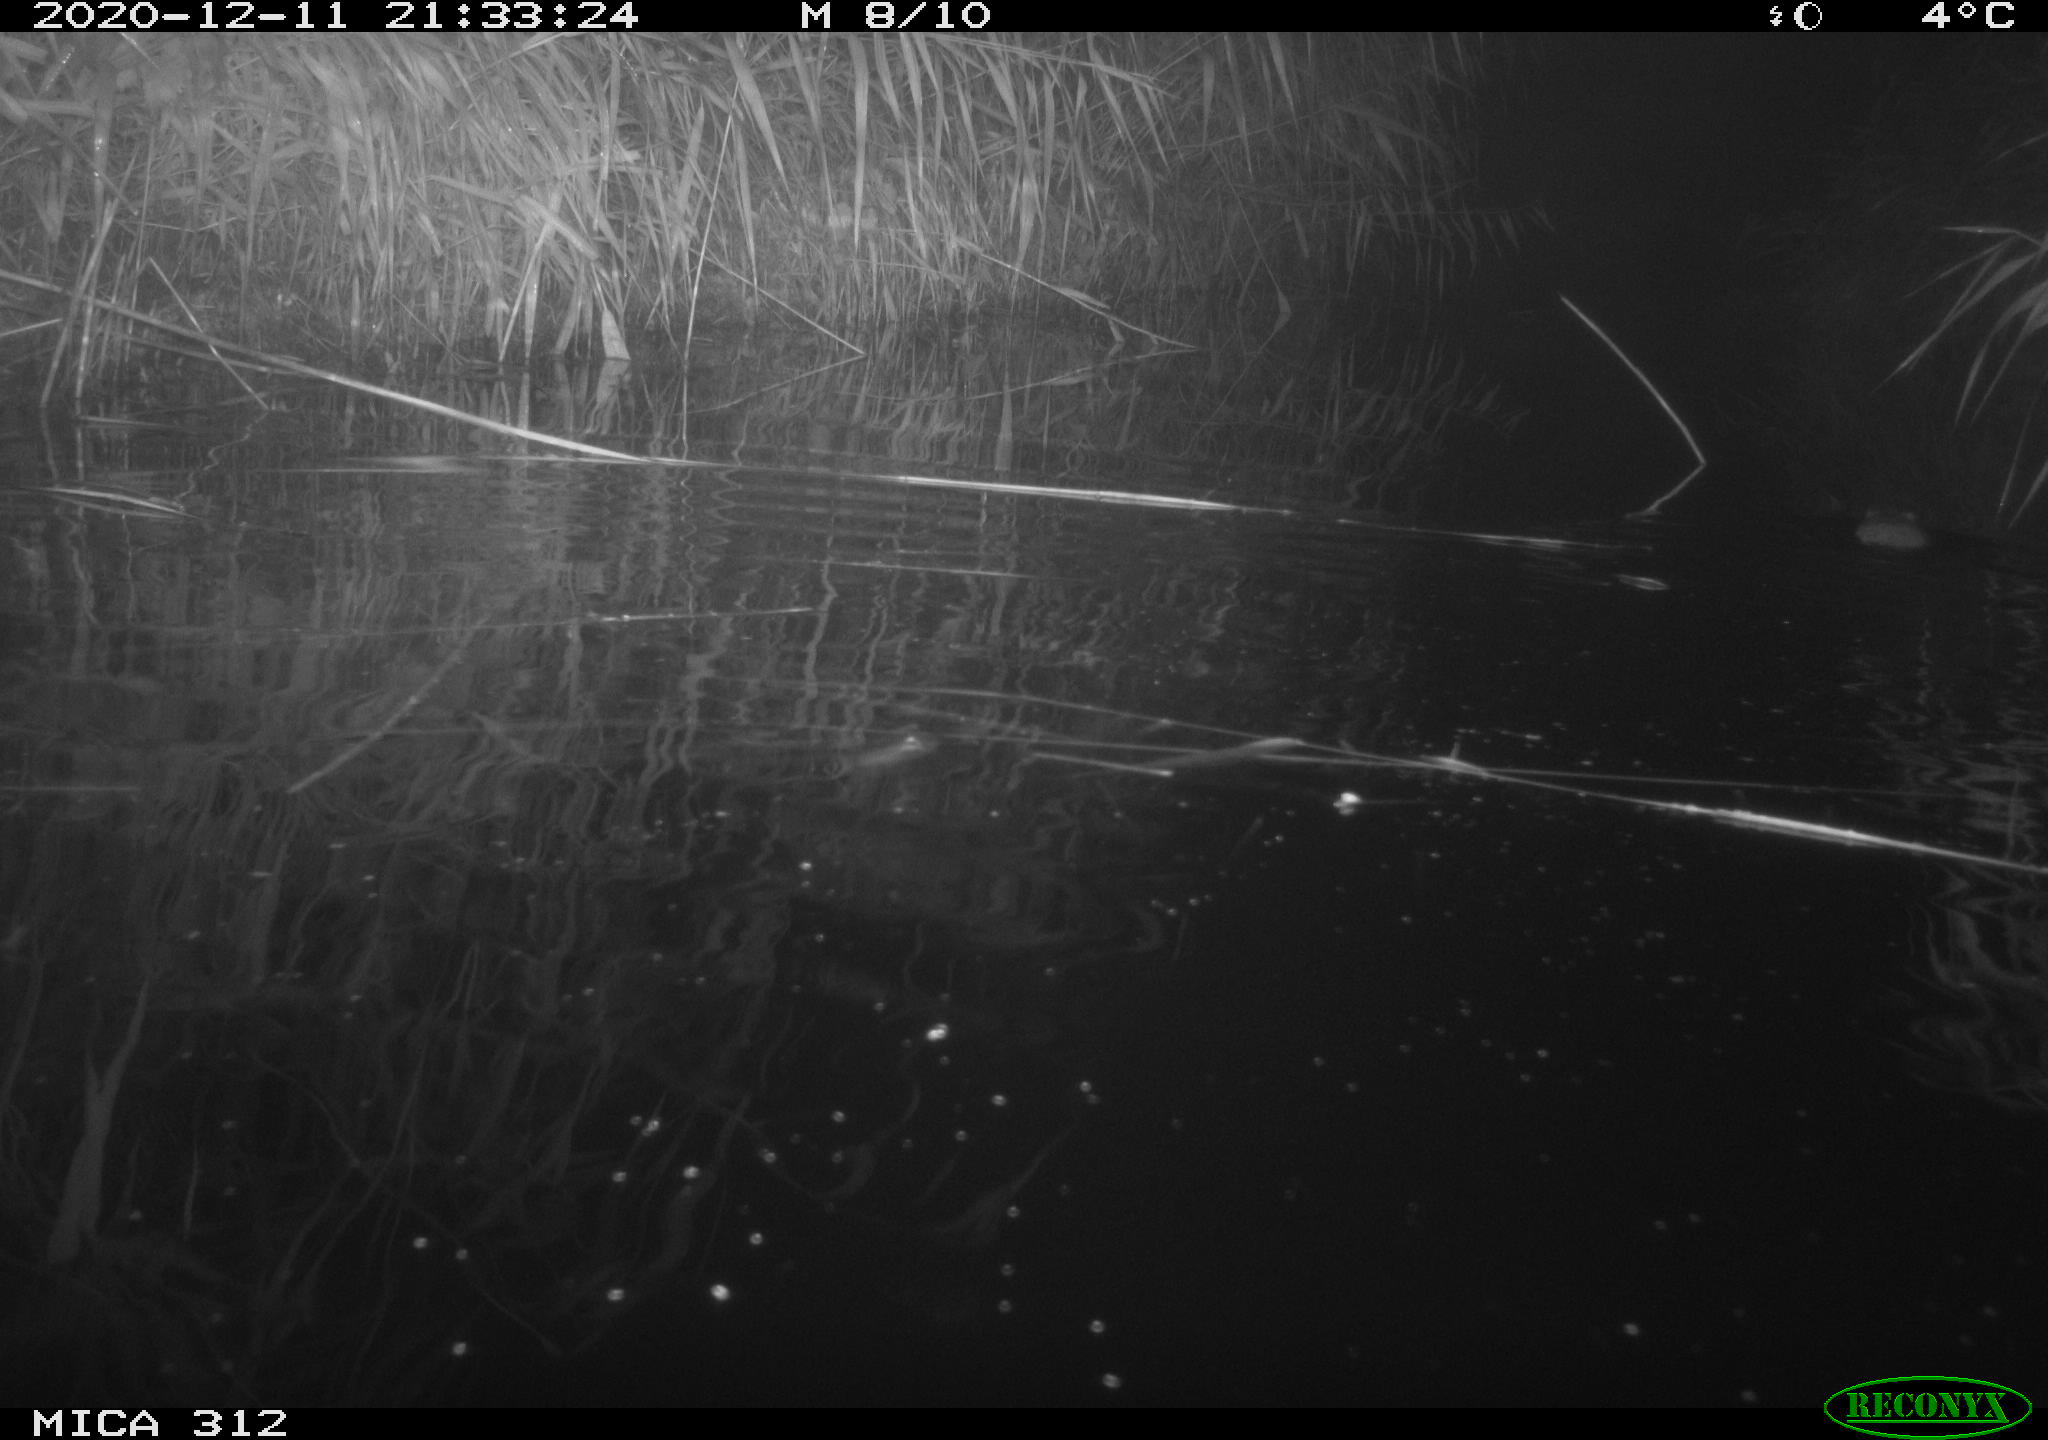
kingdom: Animalia
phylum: Chordata
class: Mammalia
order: Rodentia
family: Muridae
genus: Rattus
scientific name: Rattus norvegicus
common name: Brown rat
